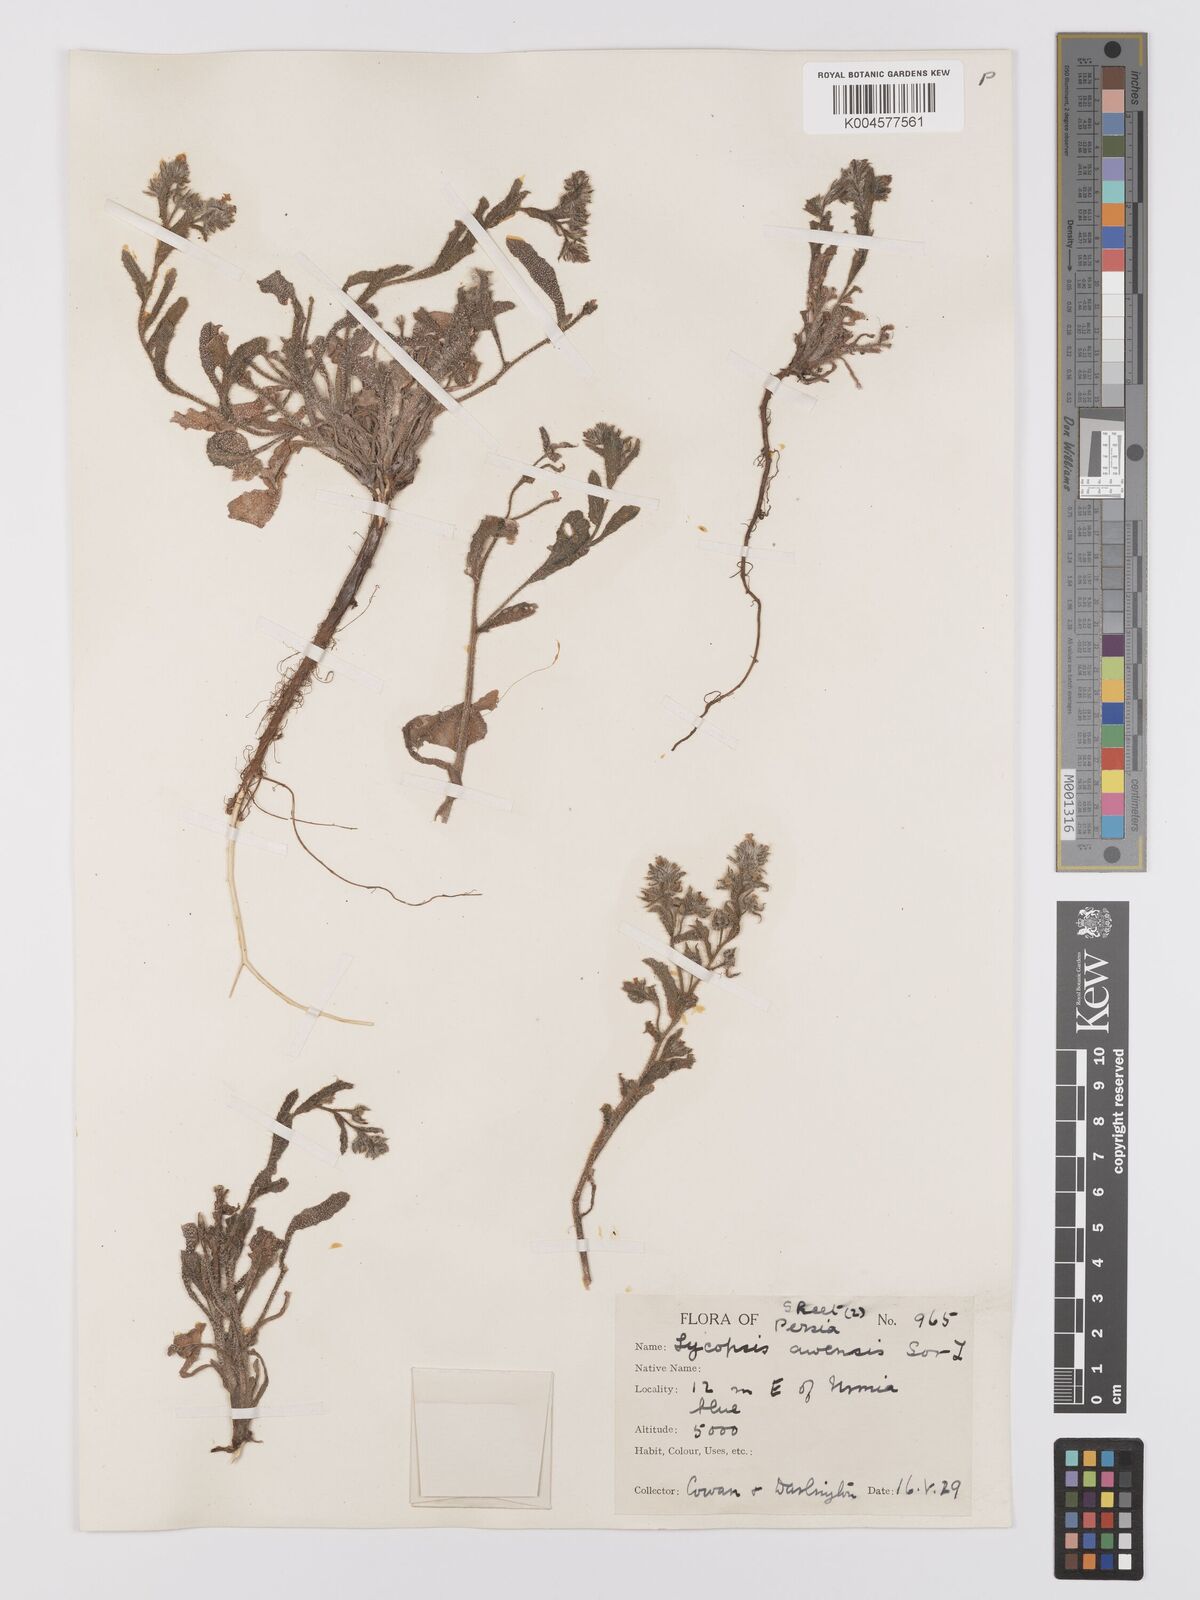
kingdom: Plantae
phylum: Tracheophyta
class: Magnoliopsida
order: Boraginales
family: Boraginaceae
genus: Lycopsis
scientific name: Lycopsis arvensis
